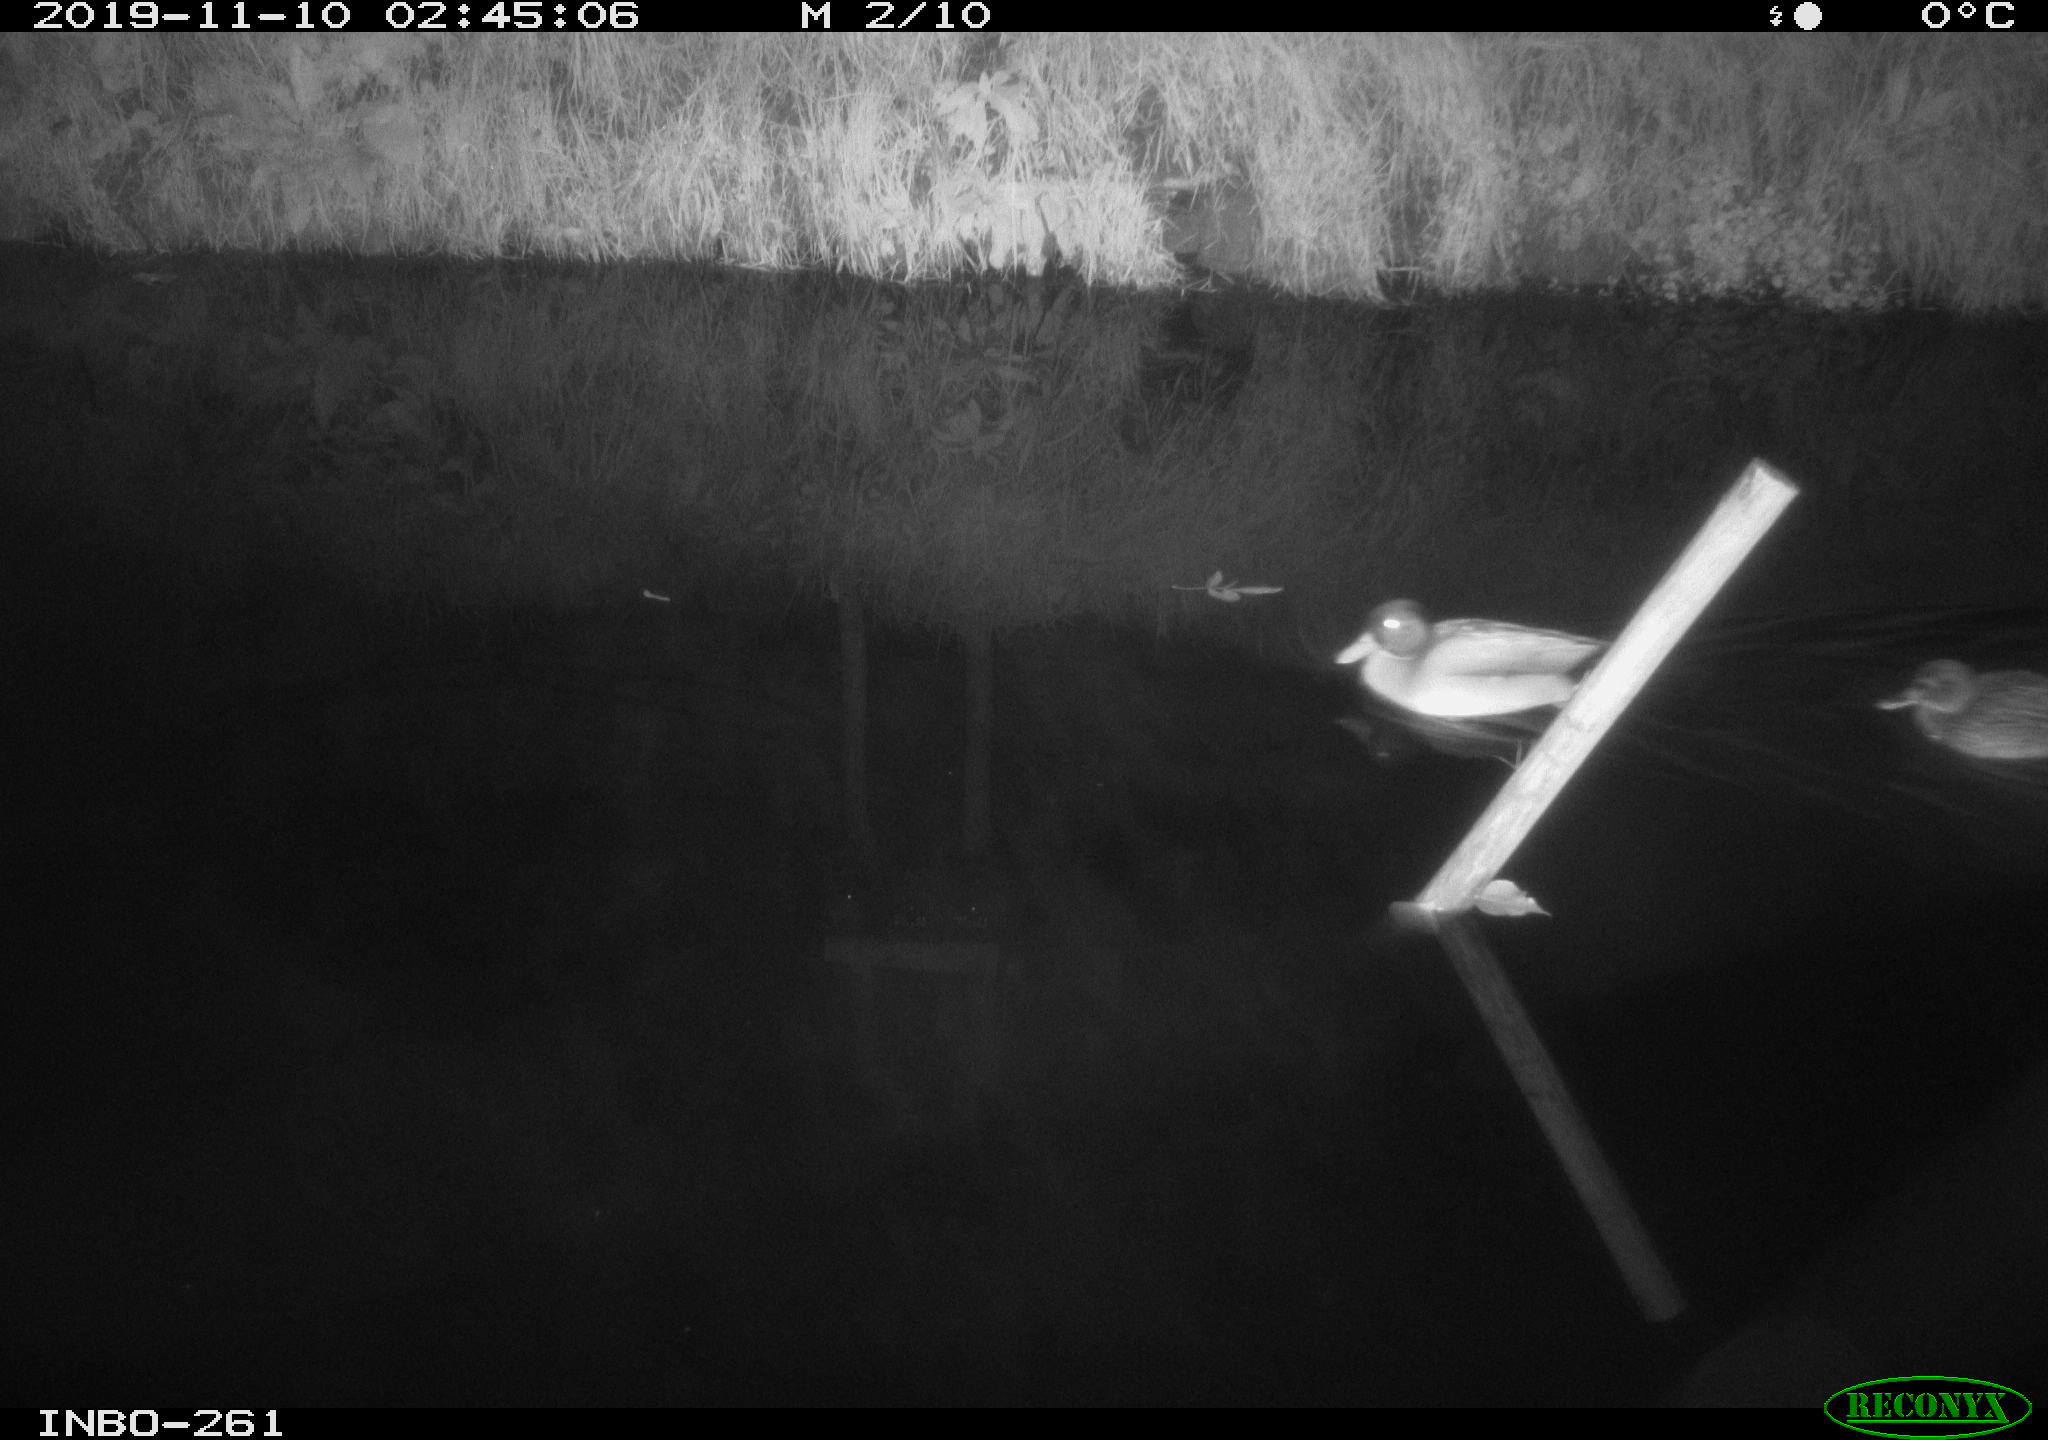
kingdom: Animalia
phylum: Chordata
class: Aves
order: Anseriformes
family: Anatidae
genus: Anas
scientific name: Anas platyrhynchos
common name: Mallard
